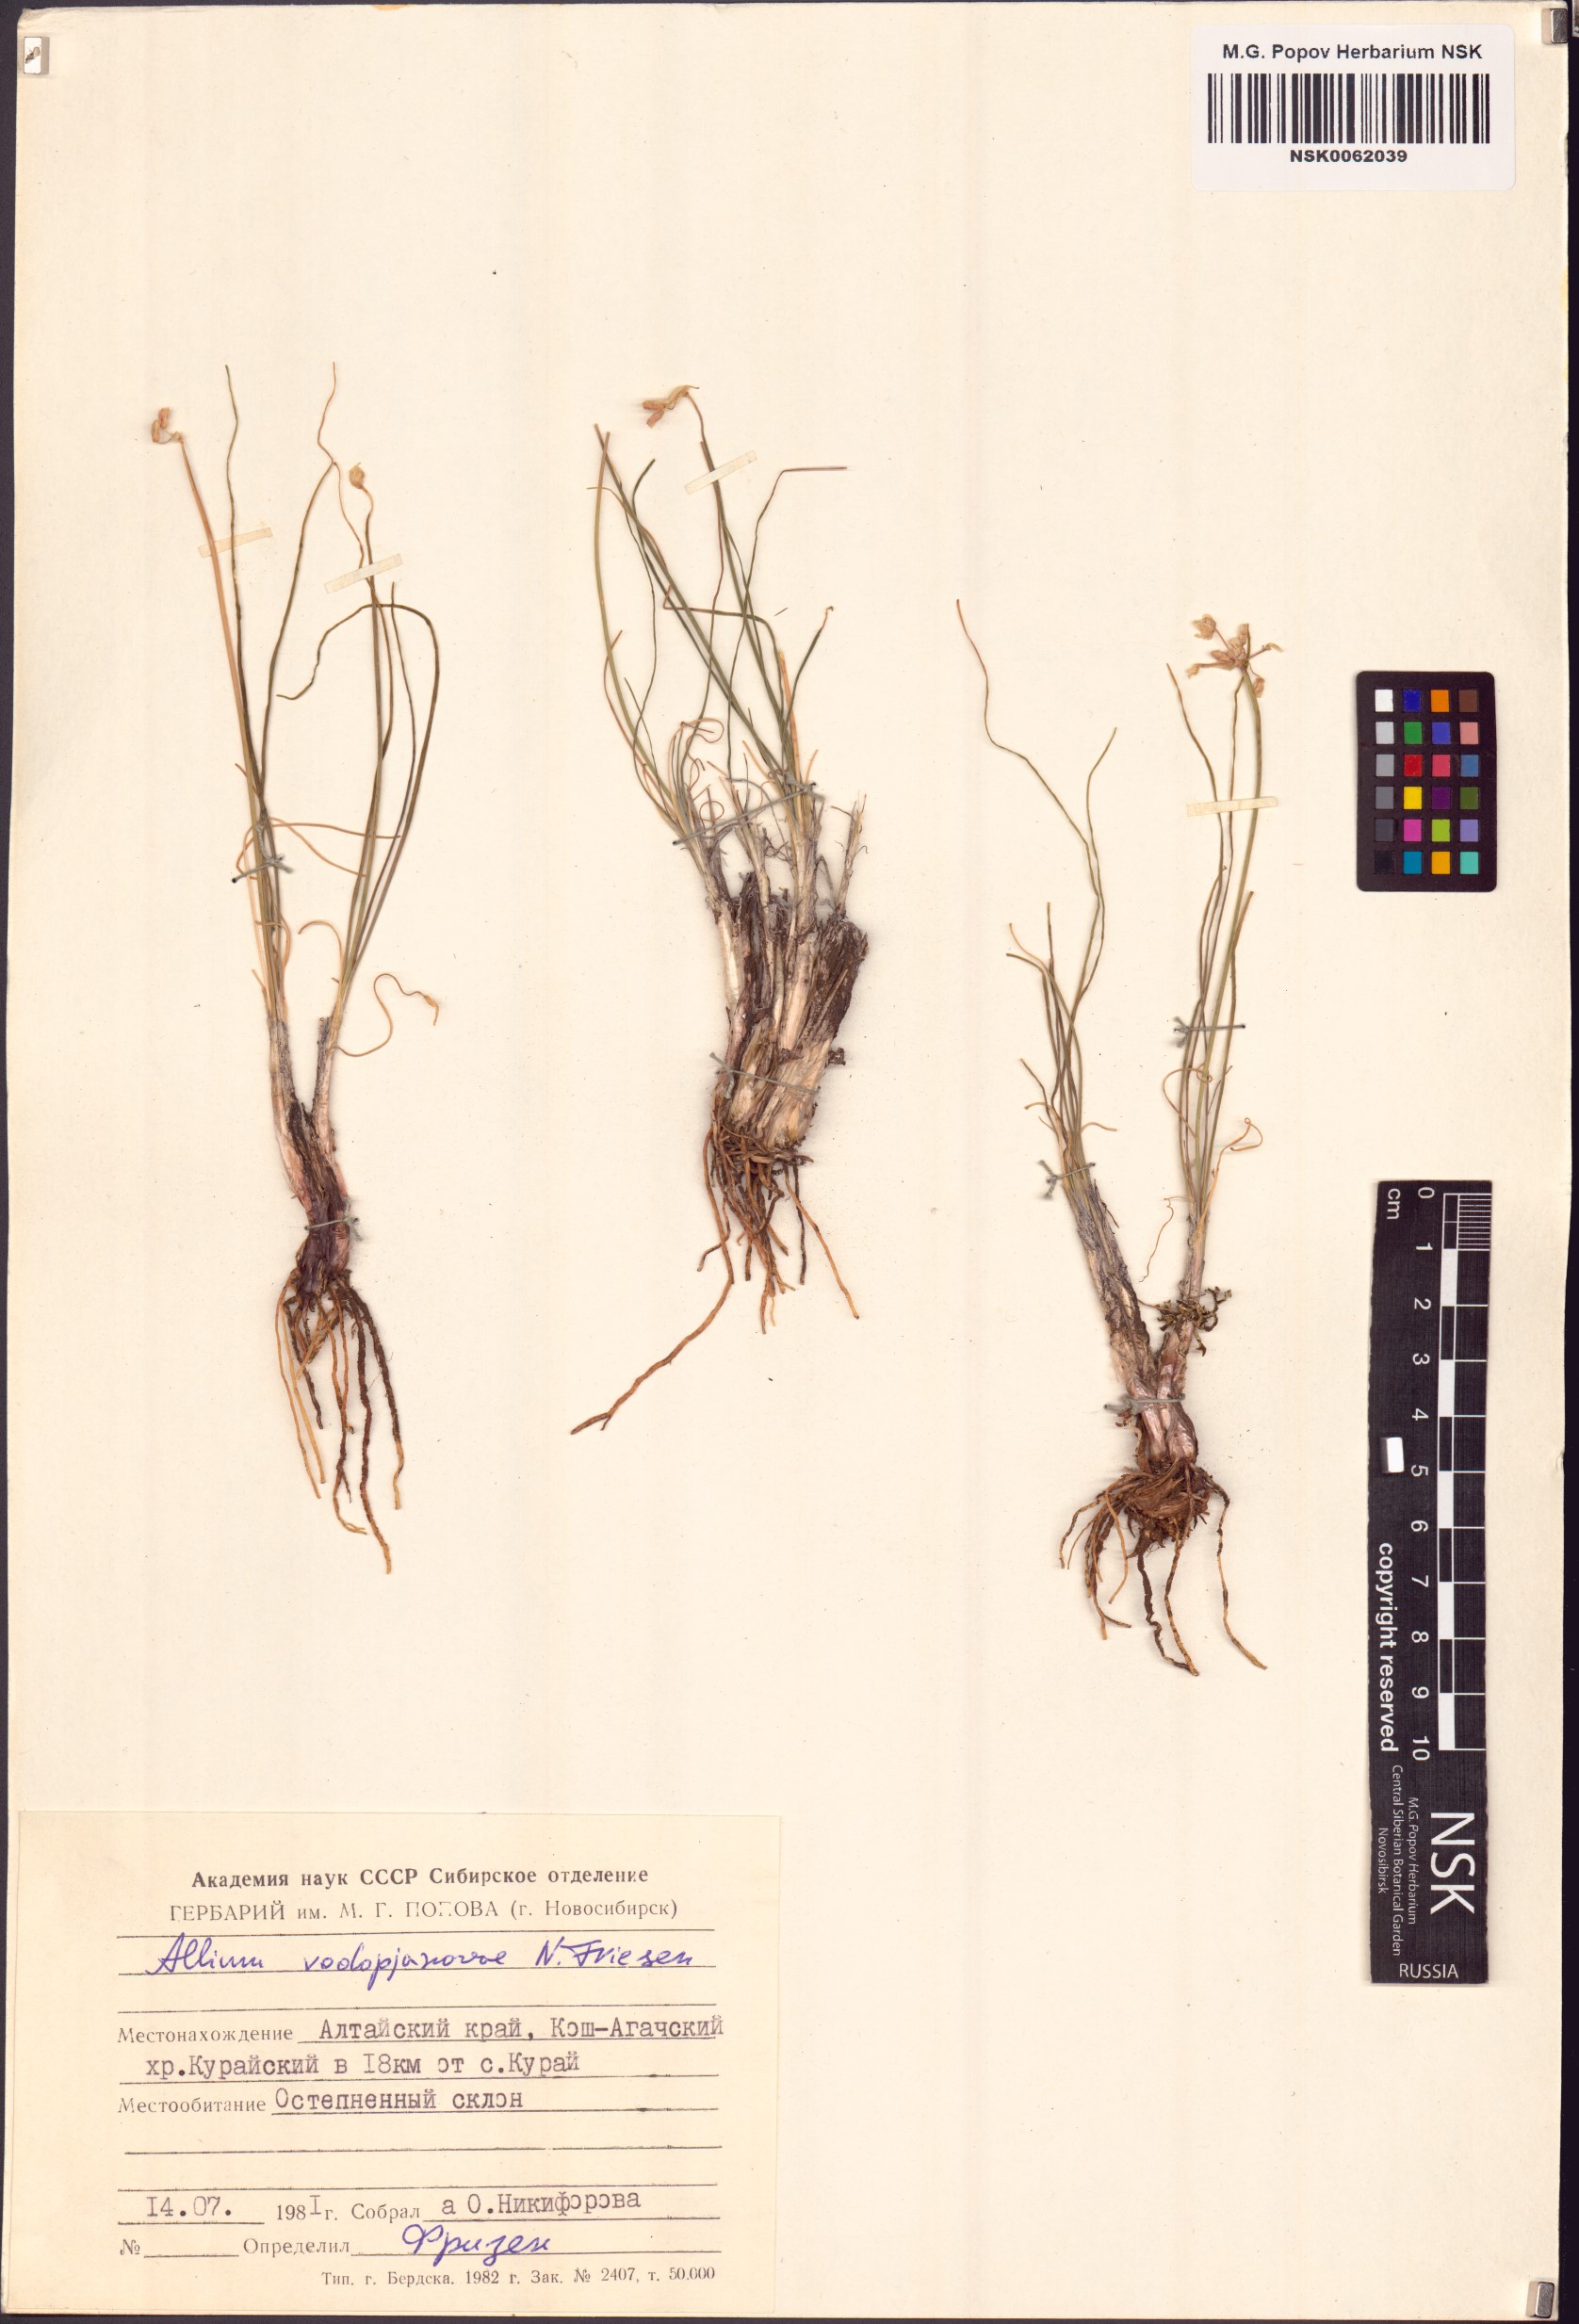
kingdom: Plantae
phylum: Tracheophyta
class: Liliopsida
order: Asparagales
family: Amaryllidaceae
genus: Allium
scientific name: Allium vodopjanovae
